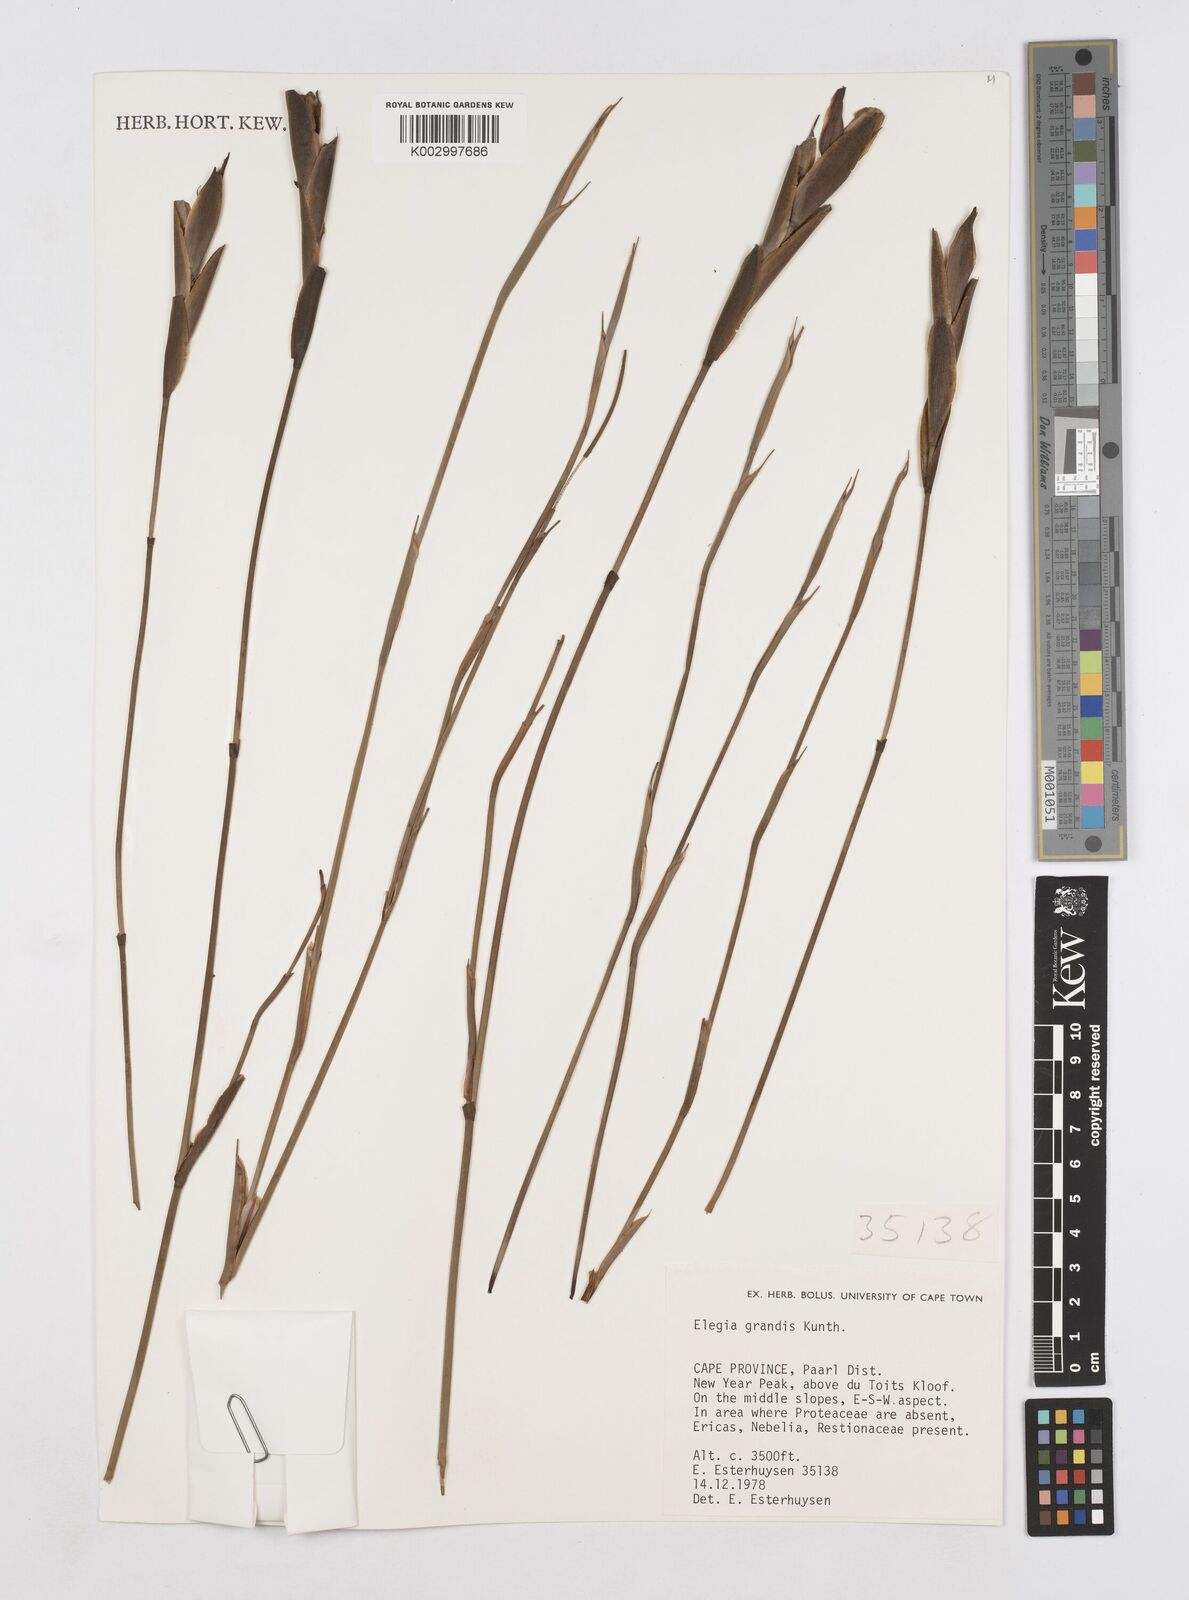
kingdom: Plantae
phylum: Tracheophyta
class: Liliopsida
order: Poales
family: Restionaceae
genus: Elegia
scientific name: Elegia grandis
